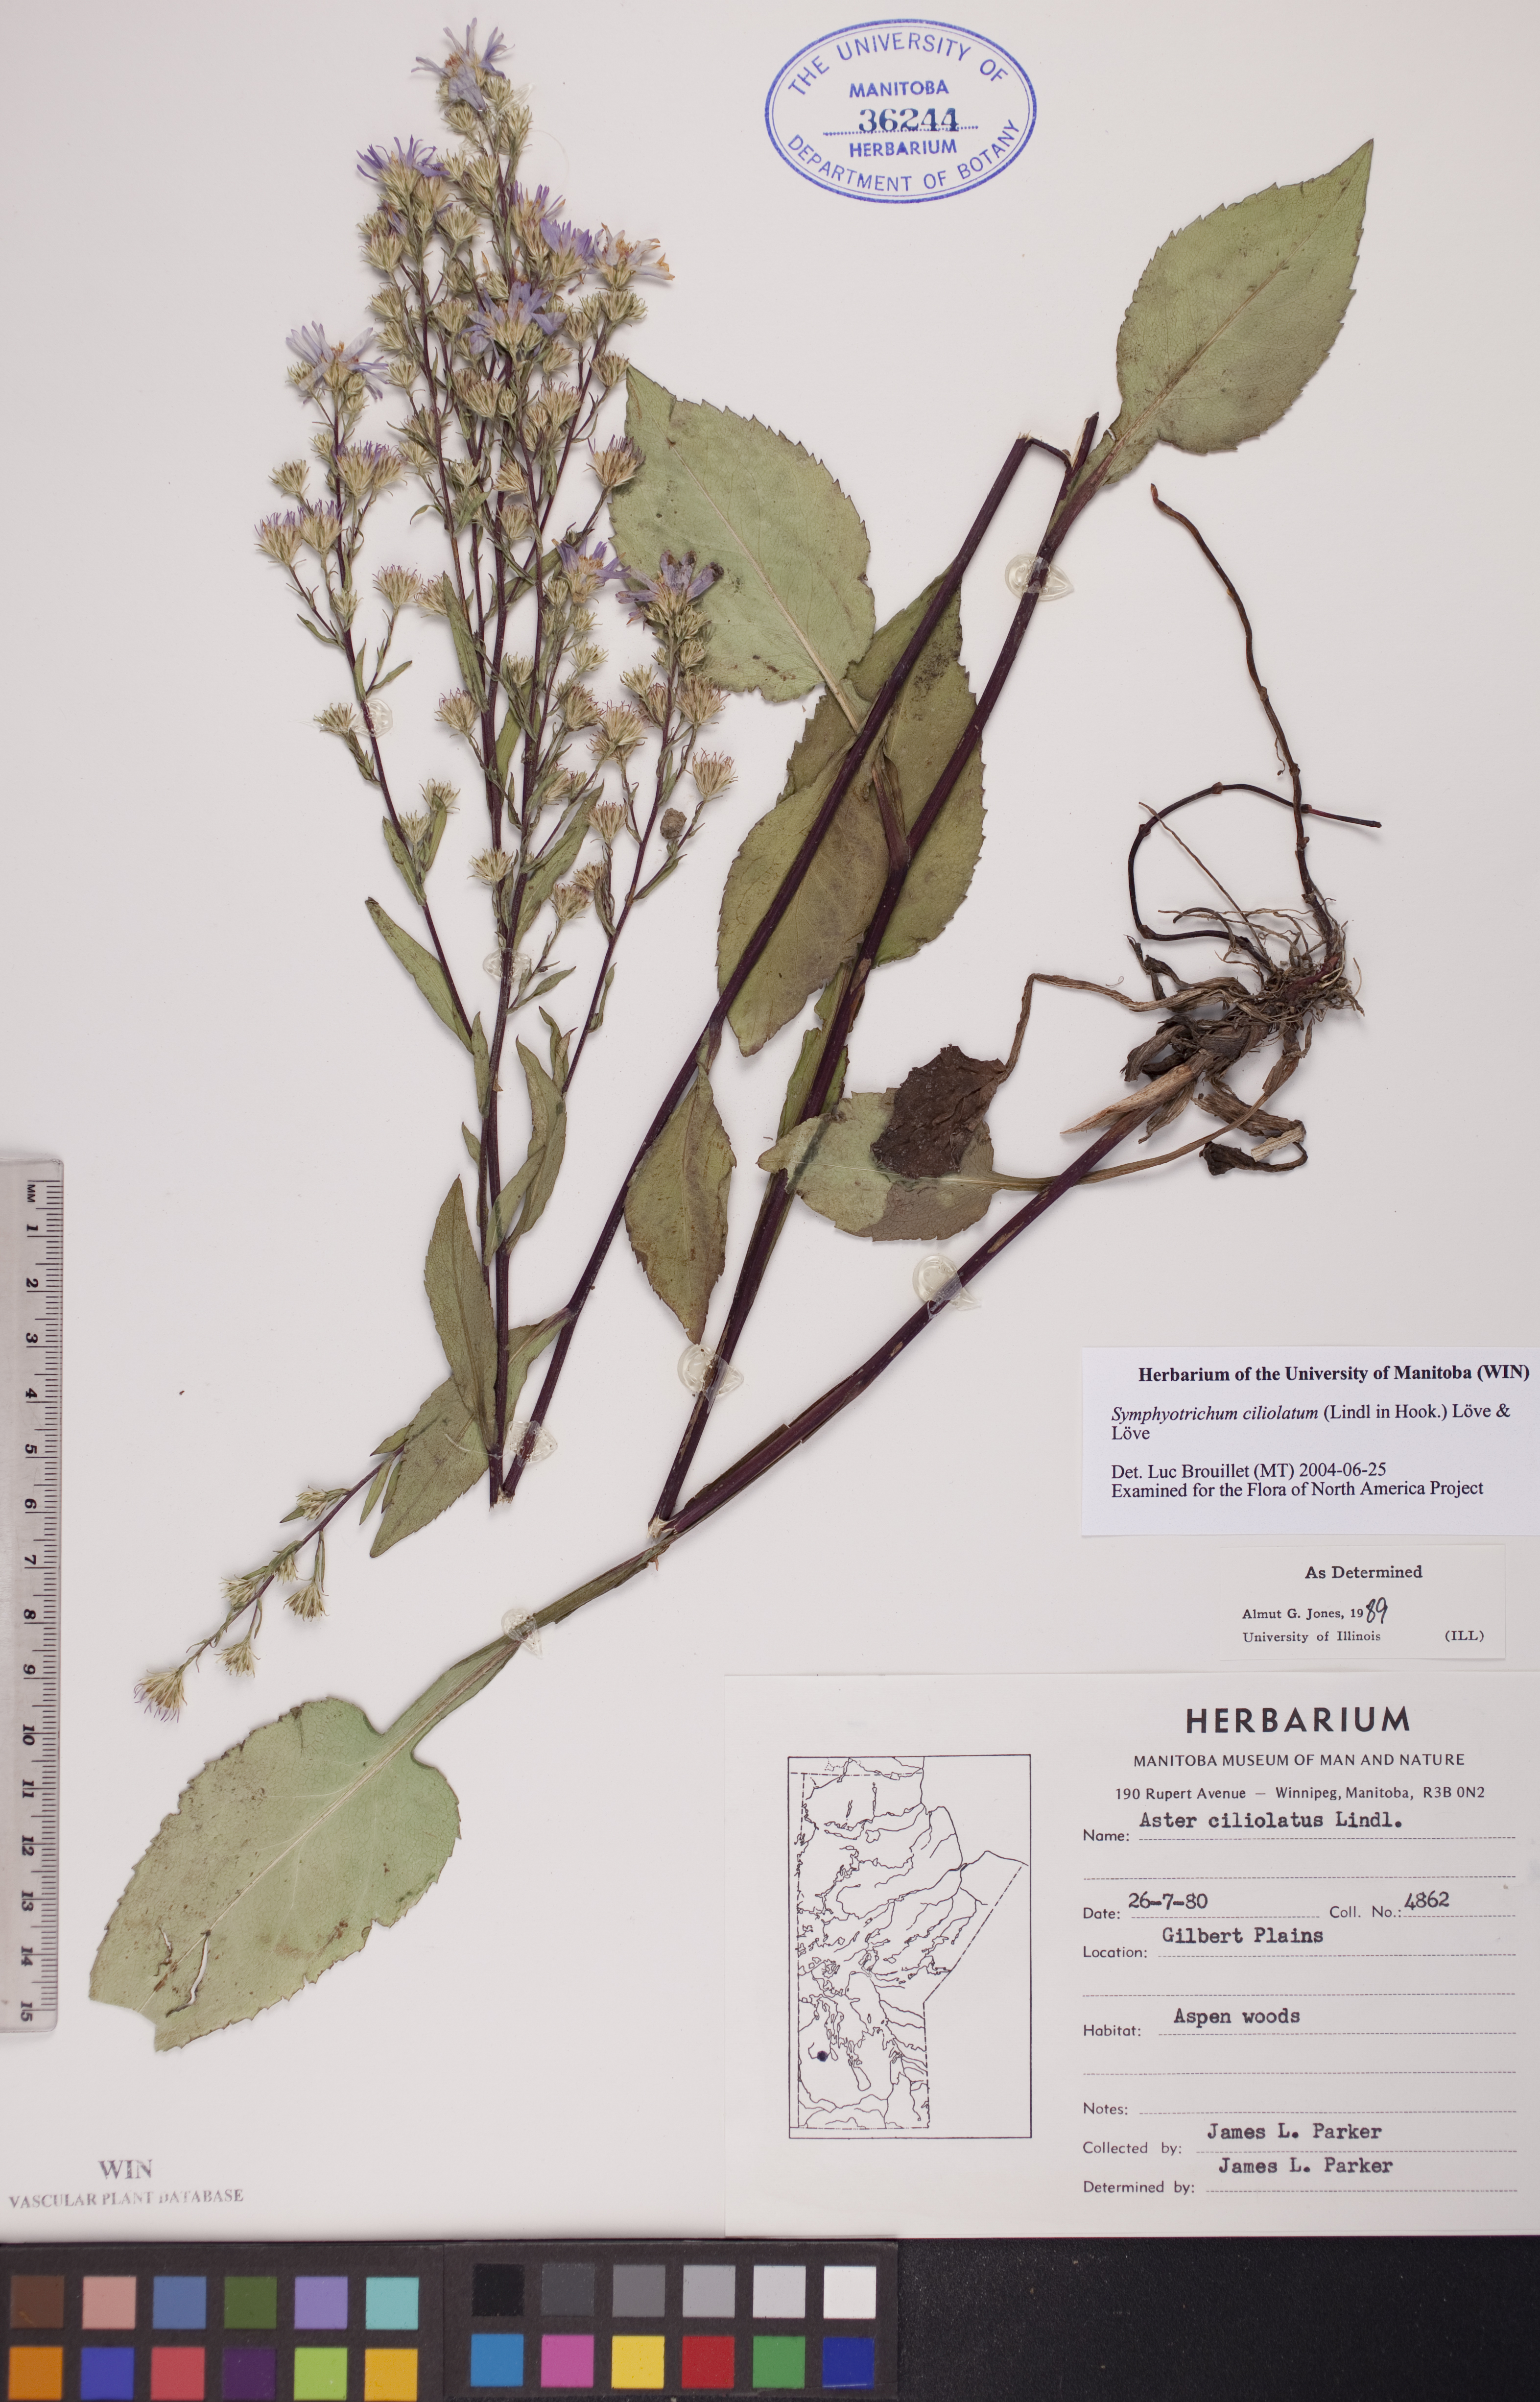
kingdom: Plantae
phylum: Tracheophyta
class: Magnoliopsida
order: Asterales
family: Asteraceae
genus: Symphyotrichum
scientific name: Symphyotrichum ciliolatum
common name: Fringed blue aster
